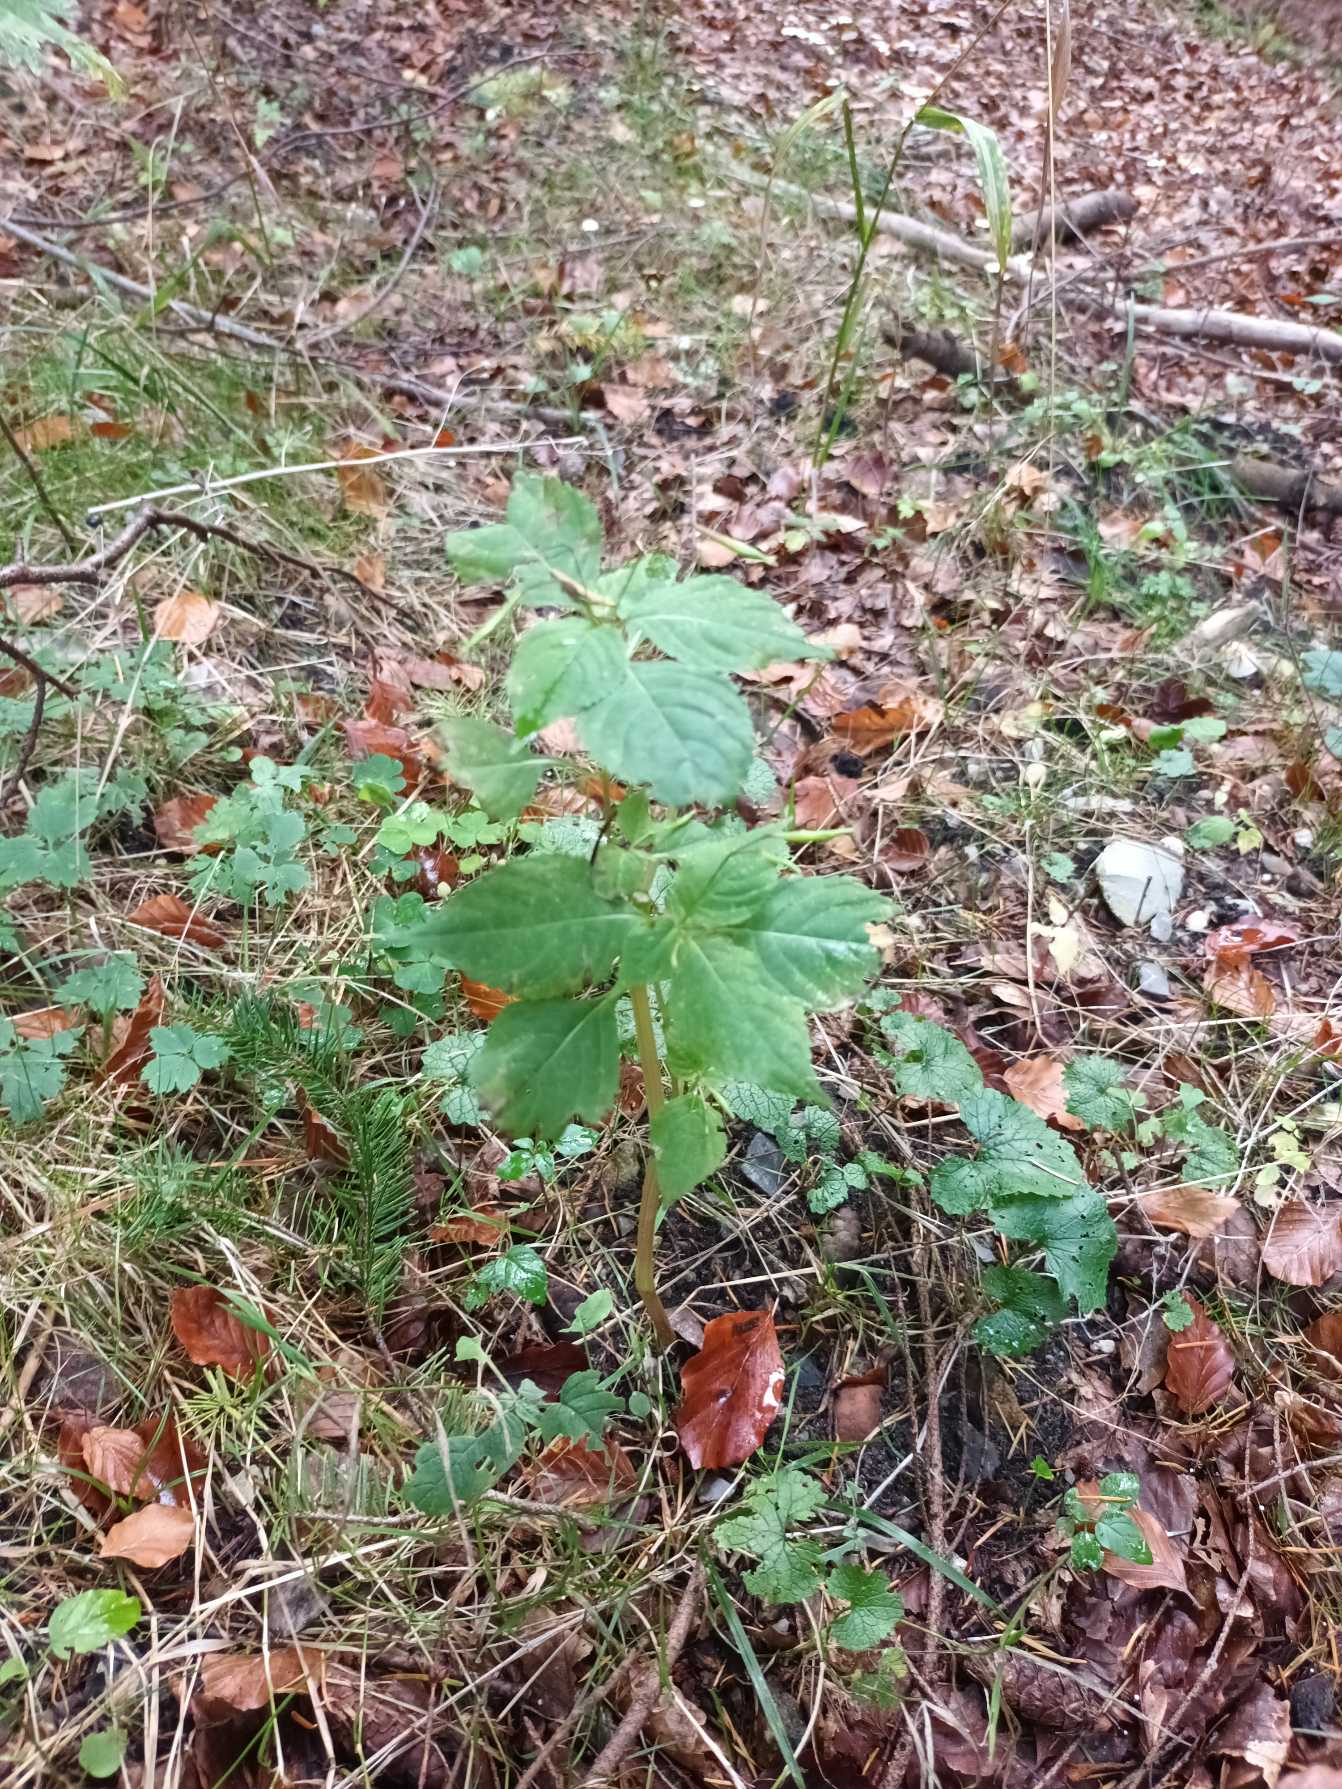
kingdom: Plantae
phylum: Tracheophyta
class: Magnoliopsida
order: Ericales
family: Balsaminaceae
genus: Impatiens
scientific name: Impatiens parviflora
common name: Småblomstret balsamin
